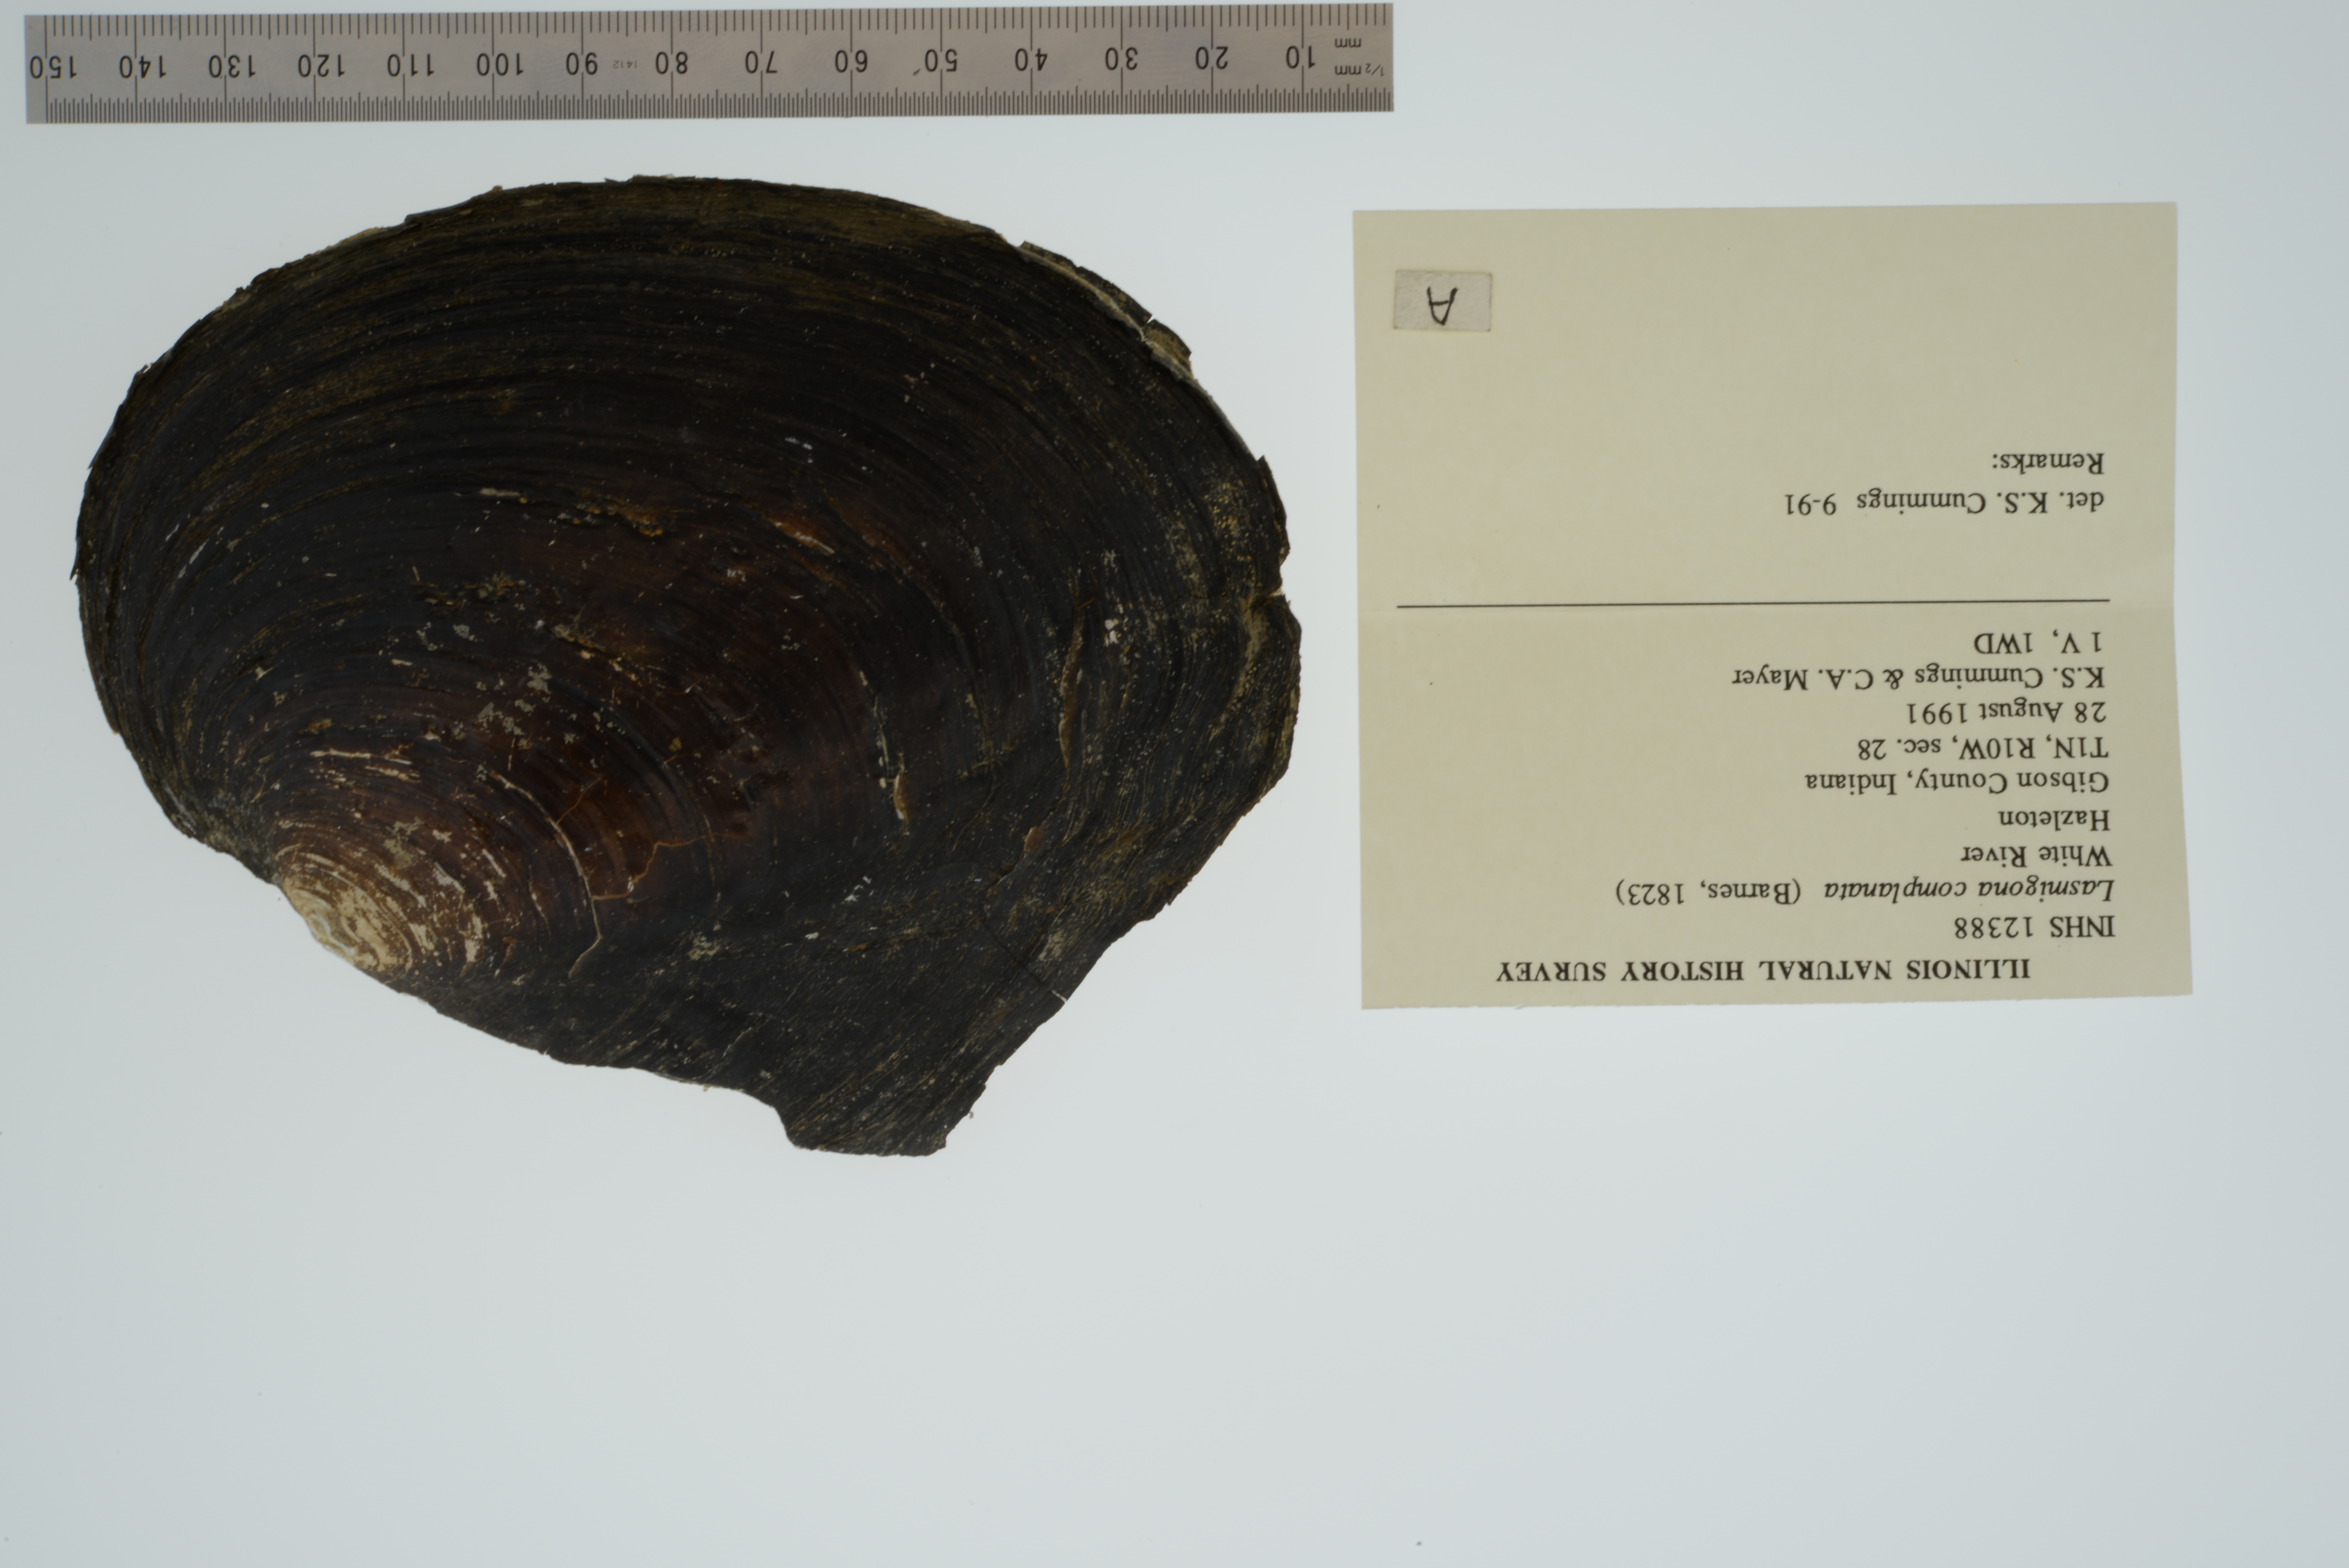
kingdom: Animalia
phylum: Mollusca
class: Bivalvia
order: Unionida
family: Unionidae
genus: Lasmigona
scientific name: Lasmigona complanata
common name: White heelsplitter
